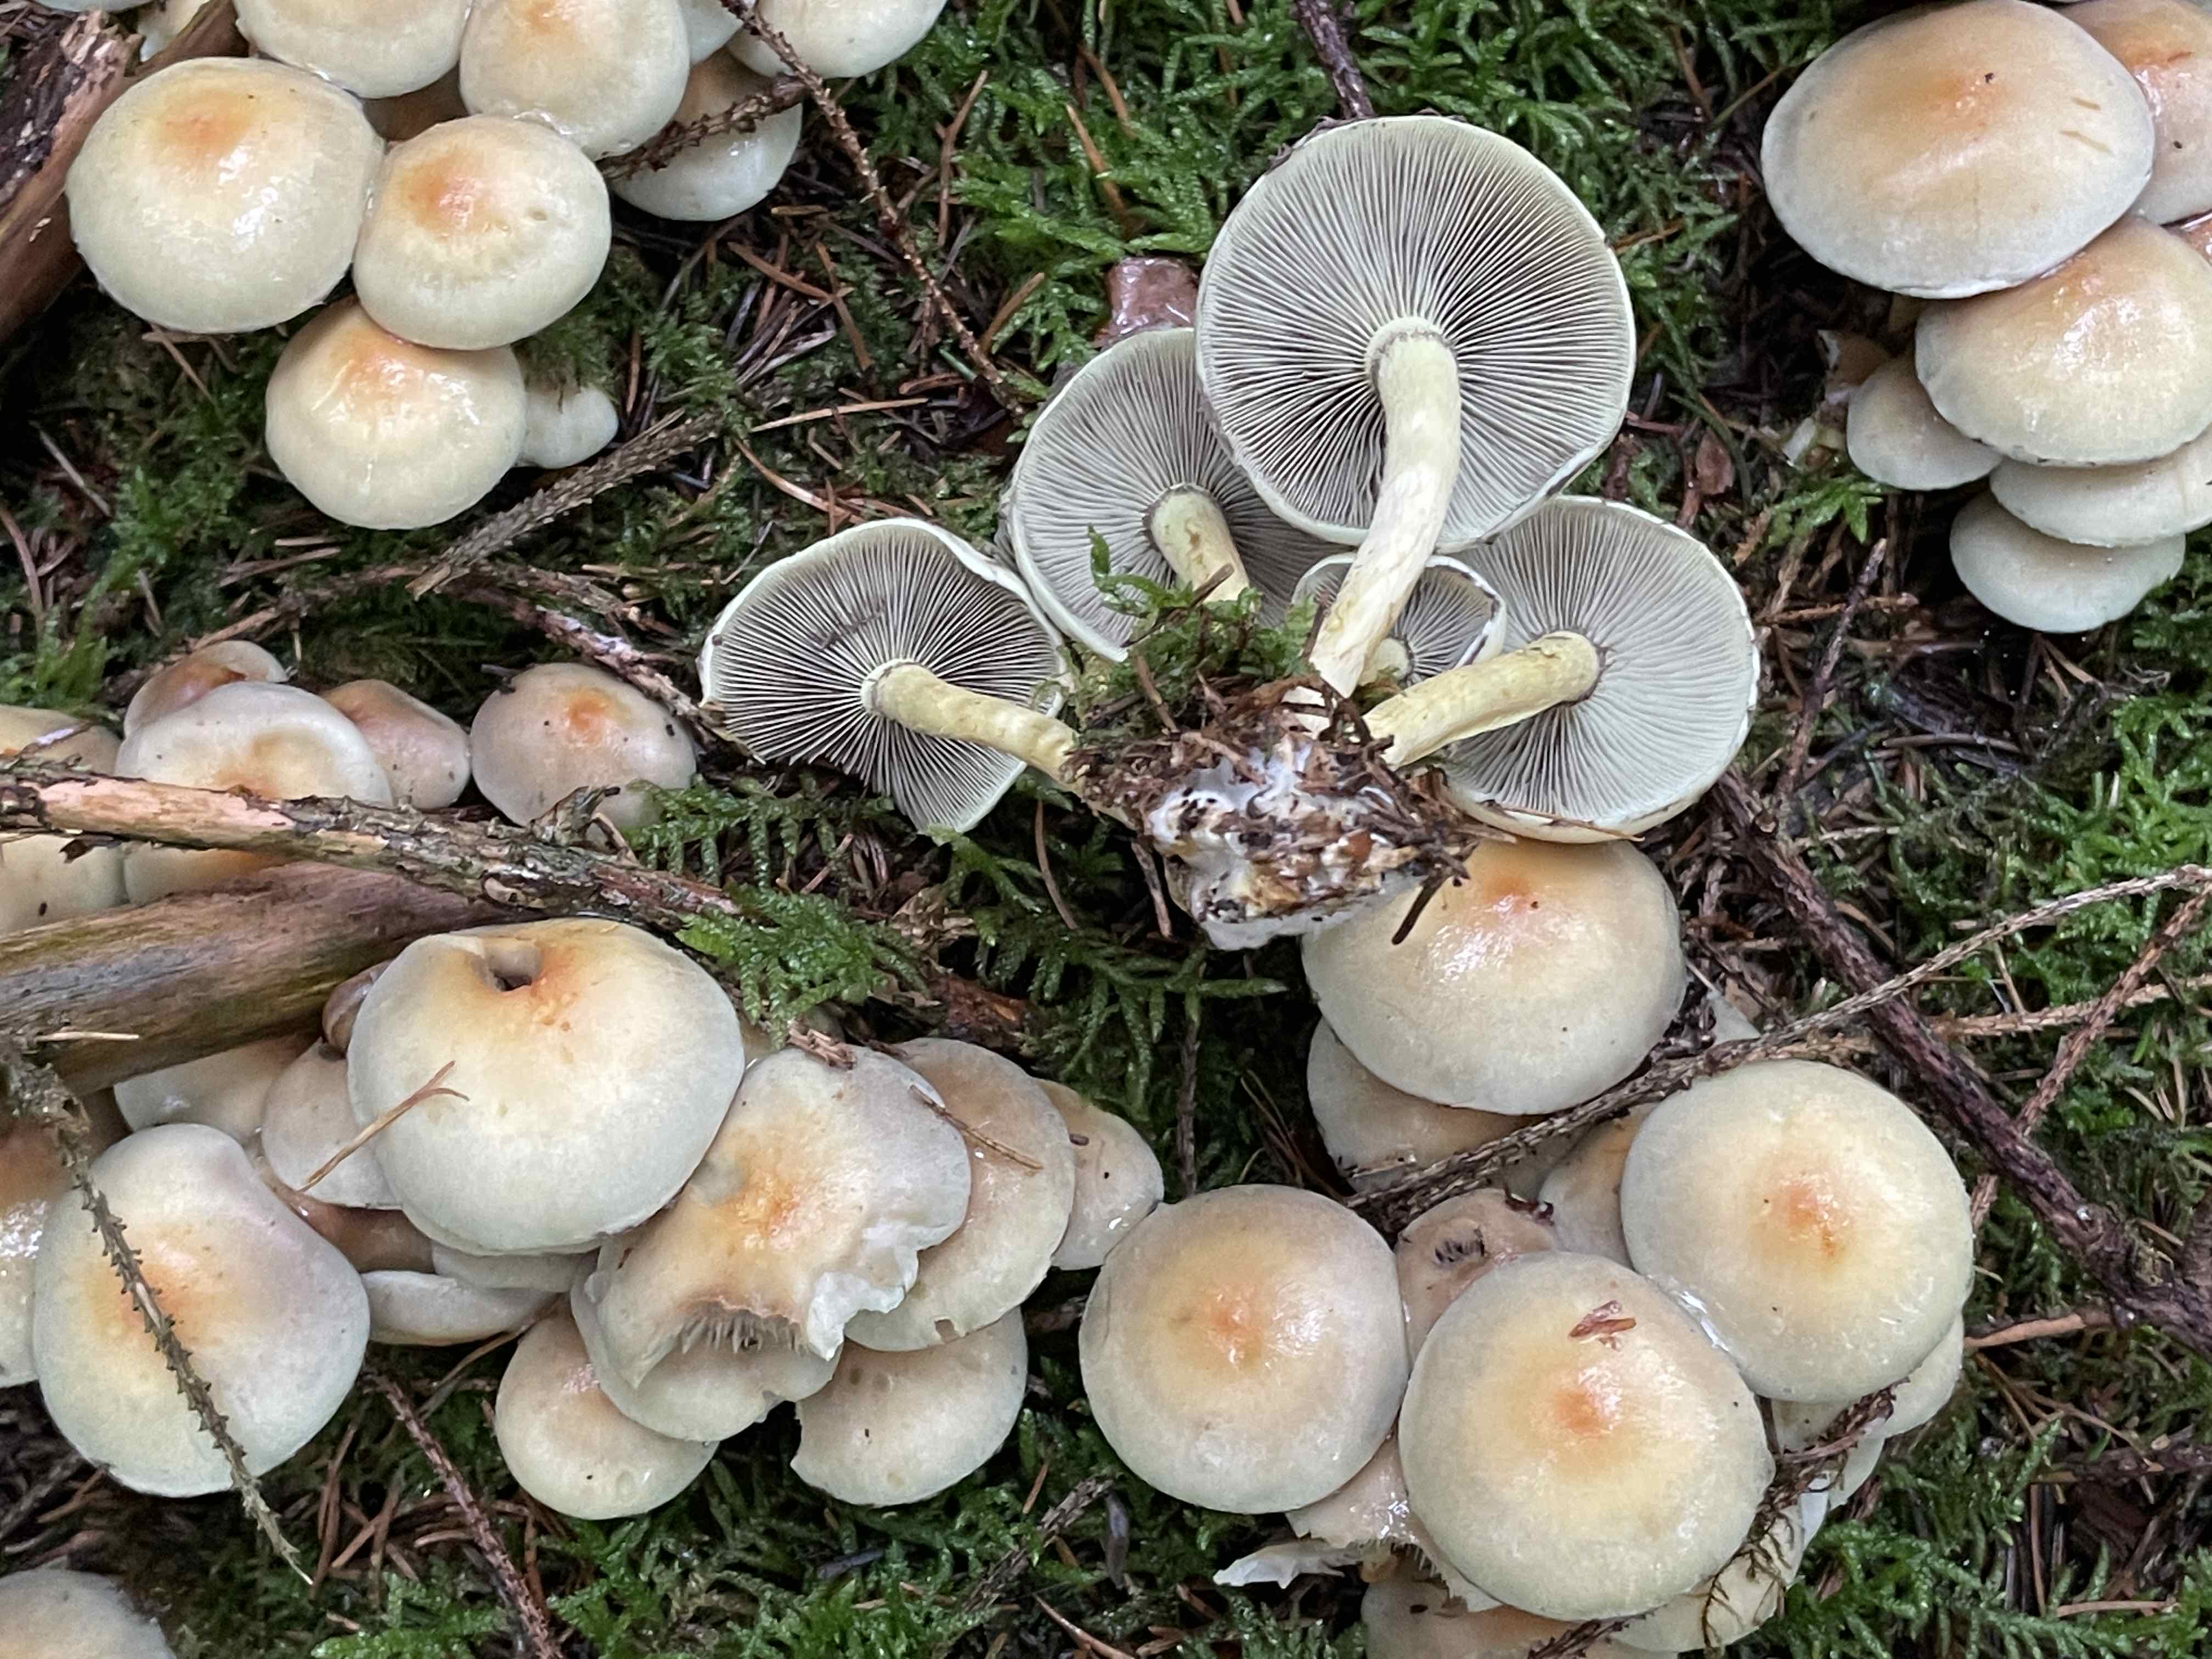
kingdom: Fungi
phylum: Basidiomycota
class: Agaricomycetes
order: Agaricales
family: Strophariaceae
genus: Hypholoma
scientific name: Hypholoma fasciculare
